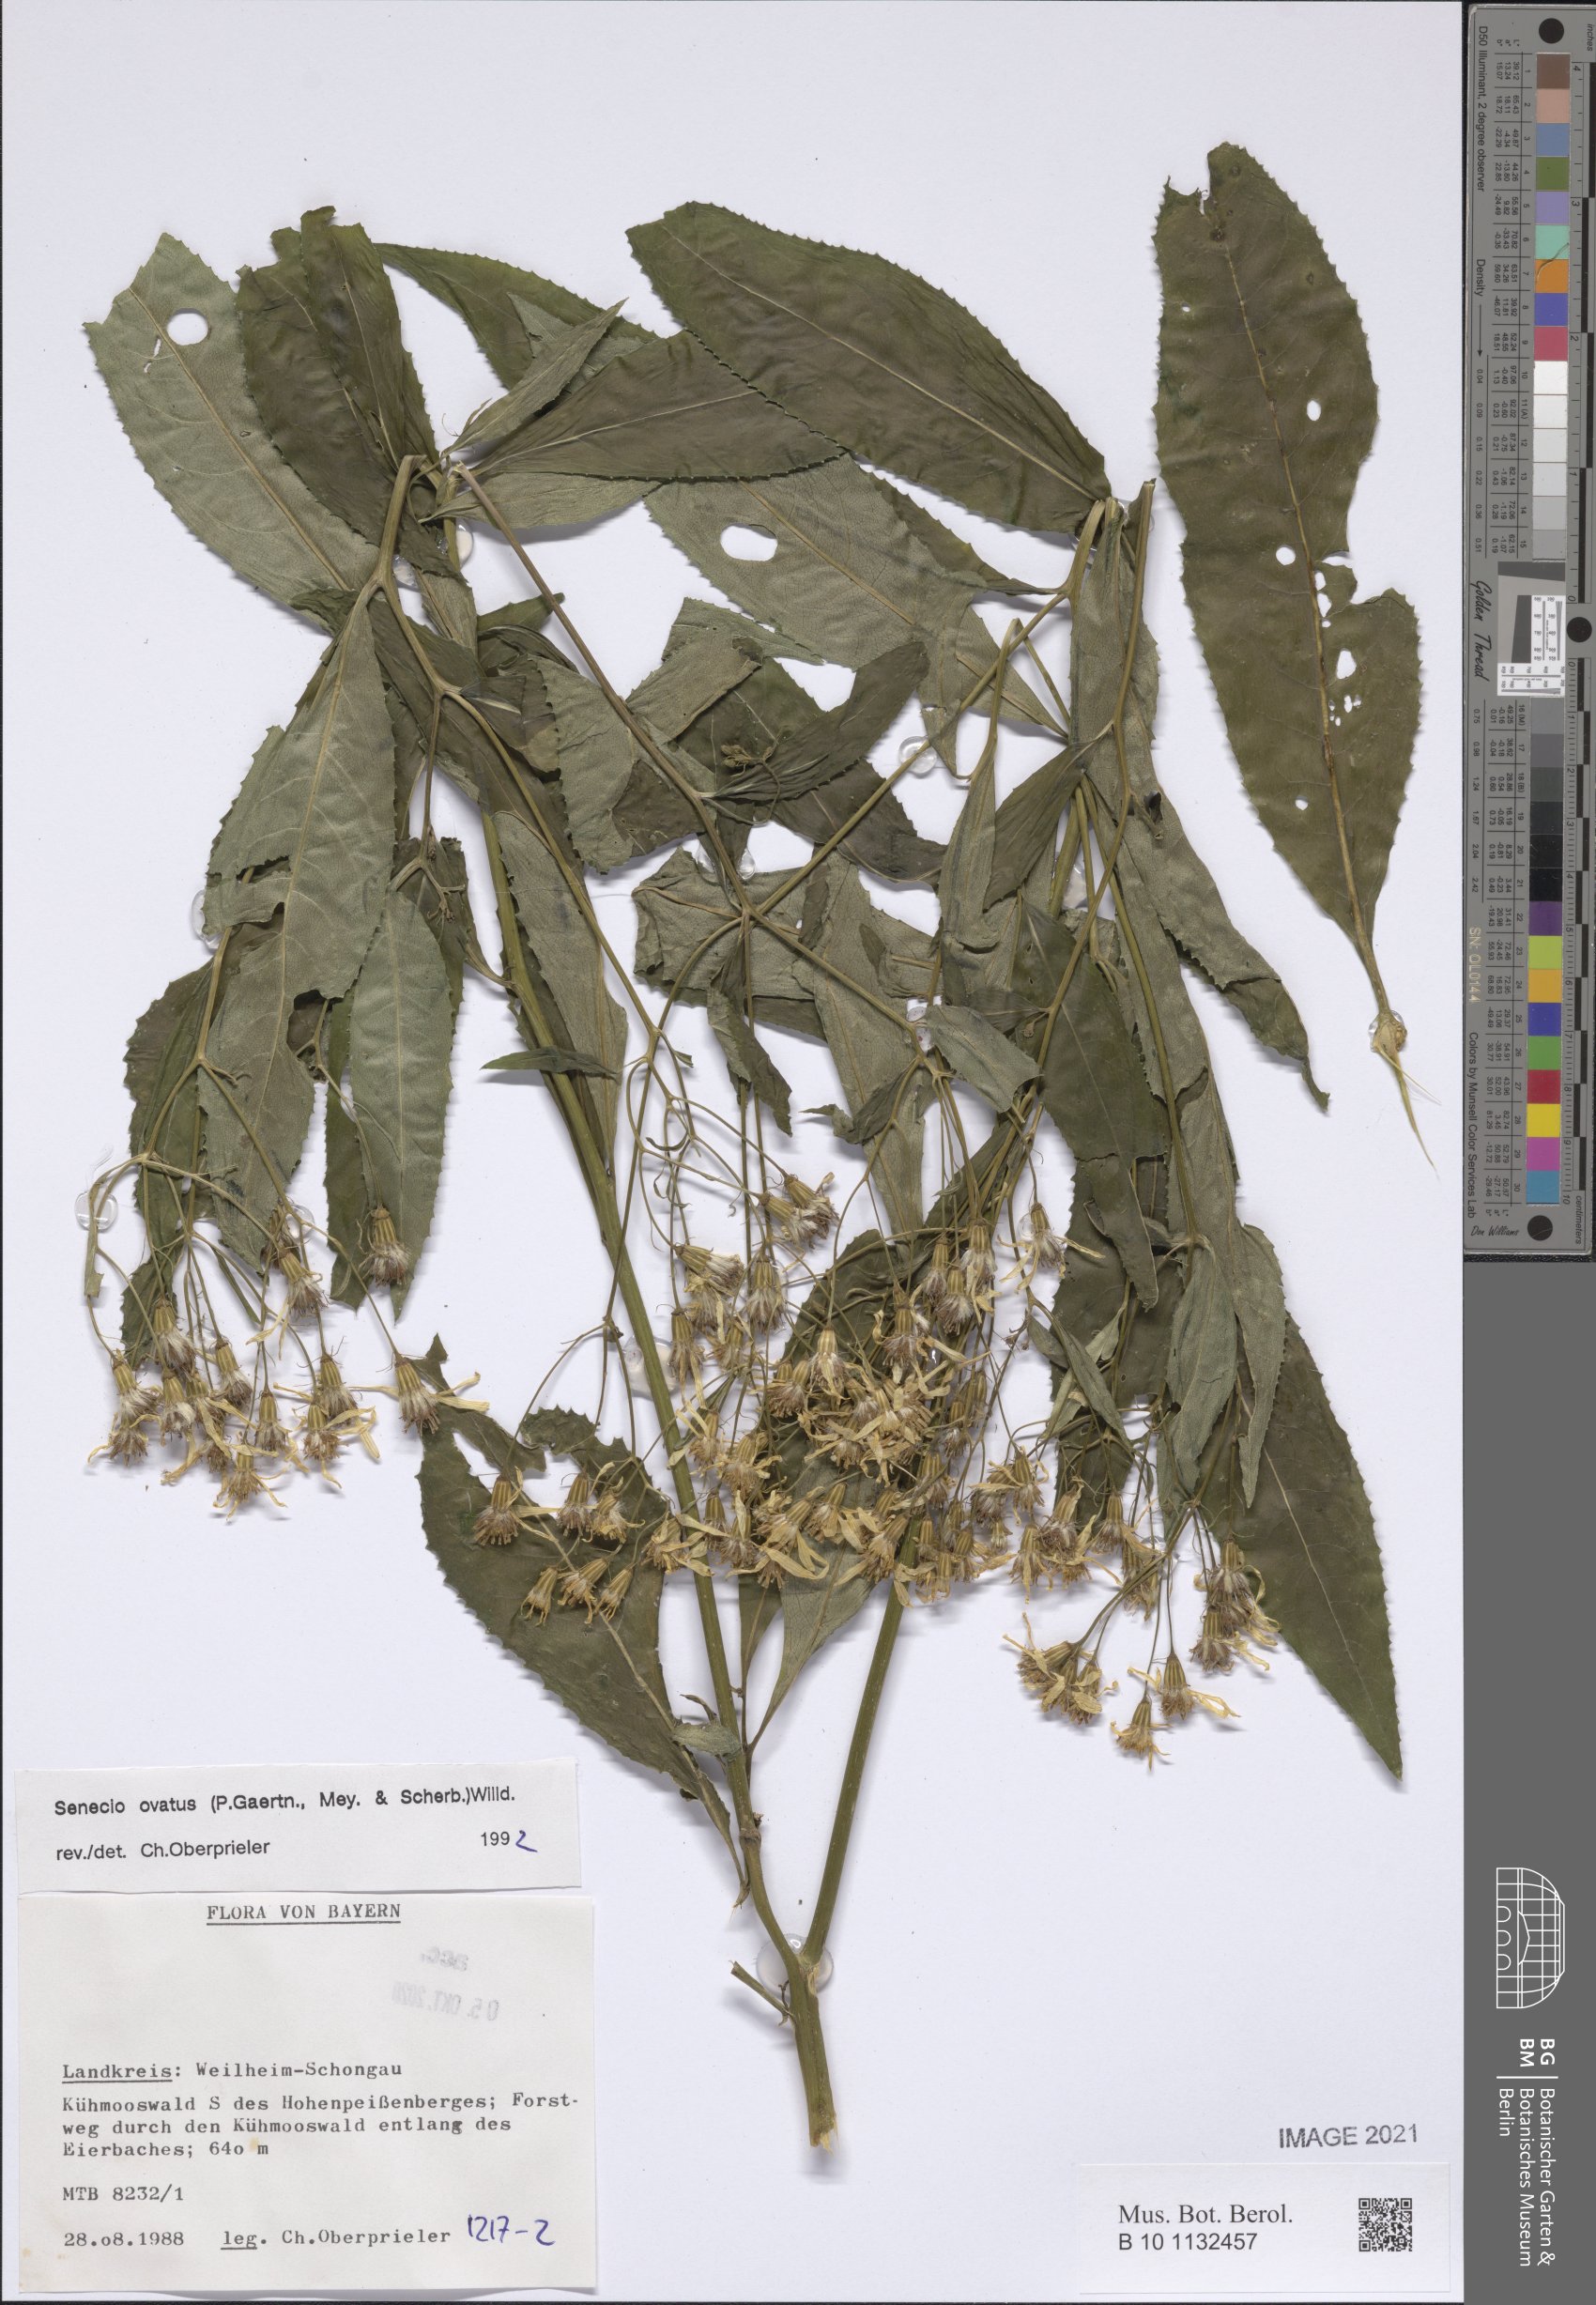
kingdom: Plantae
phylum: Tracheophyta
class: Magnoliopsida
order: Asterales
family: Asteraceae
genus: Senecio
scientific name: Senecio ovatus
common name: Wood ragwort
